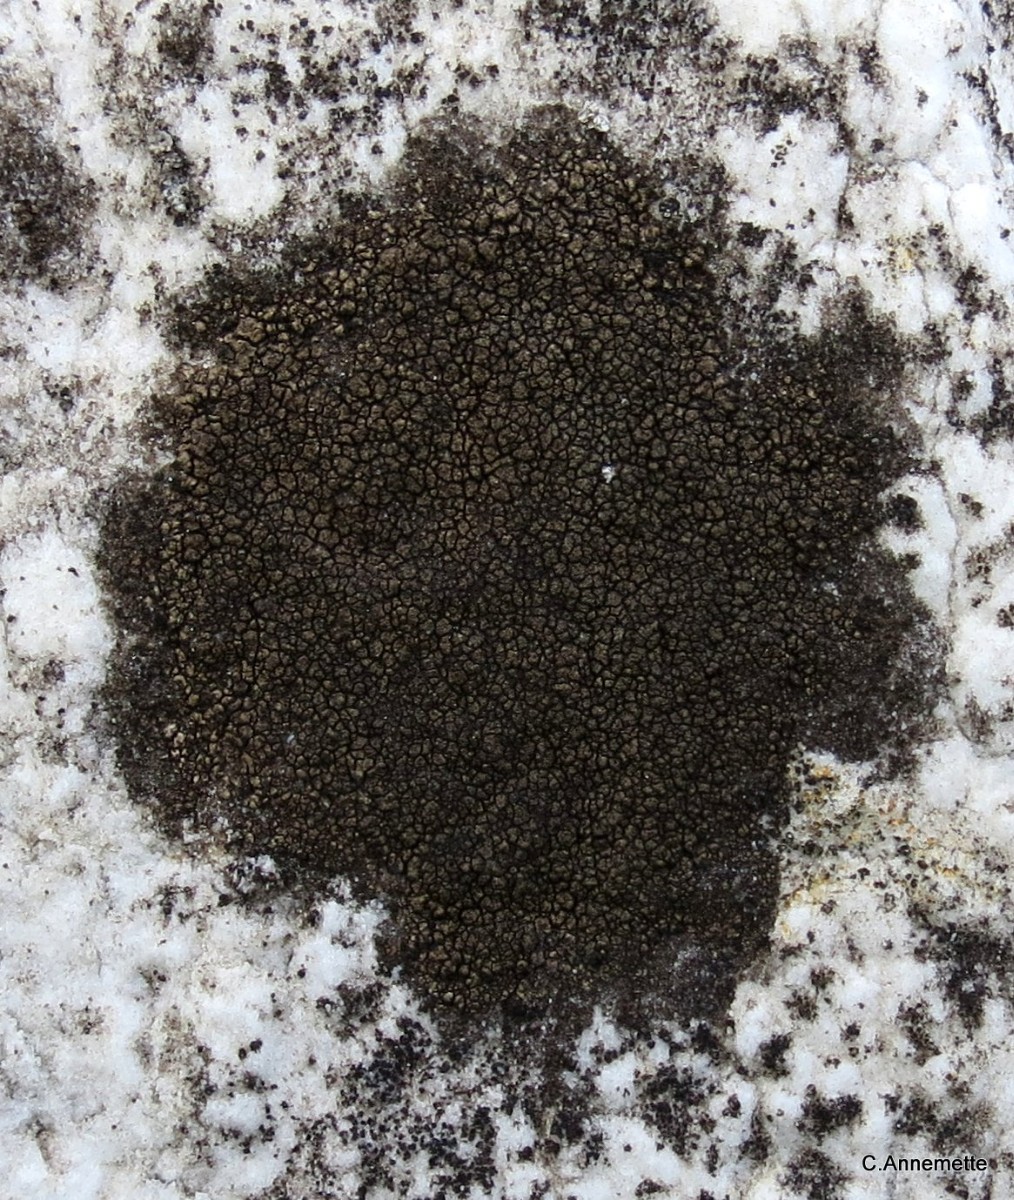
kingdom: Fungi
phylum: Ascomycota
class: Eurotiomycetes
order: Verrucariales
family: Verrucariaceae
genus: Verrucaria
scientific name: Verrucaria nigrescens
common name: sortbrun vortelav
